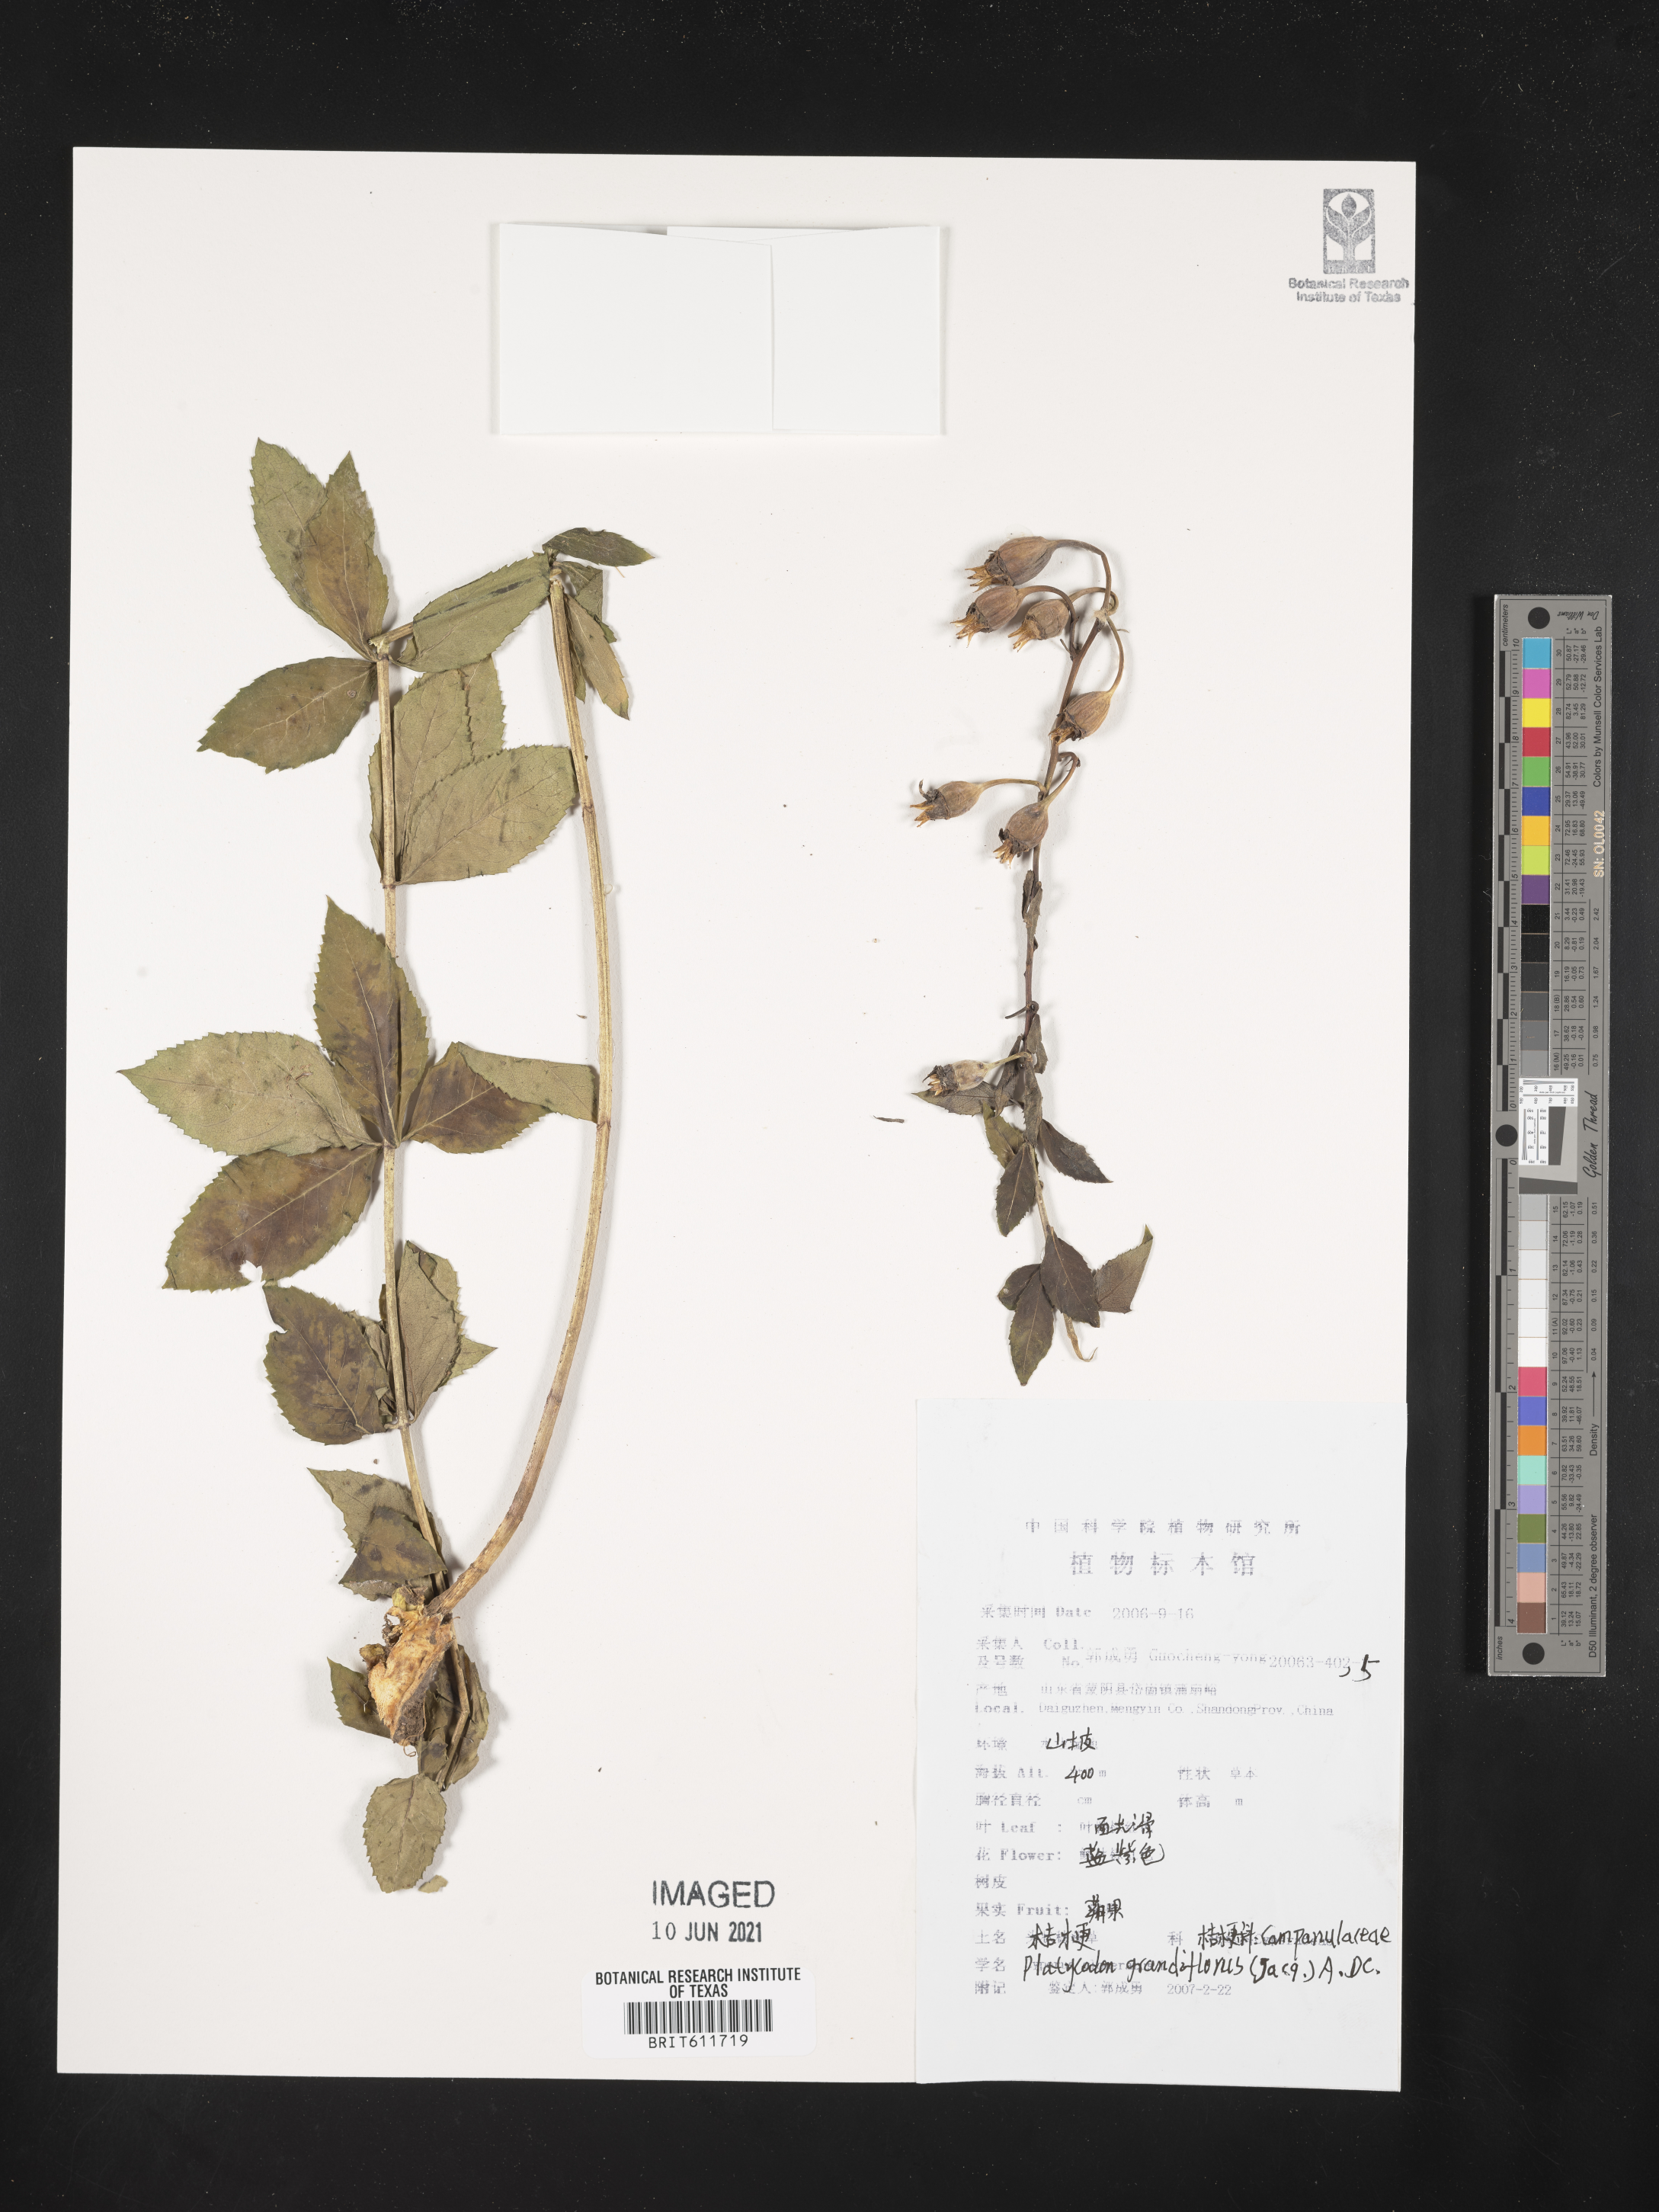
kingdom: Plantae
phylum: Tracheophyta
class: Magnoliopsida
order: Asterales
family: Campanulaceae
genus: Platycodon
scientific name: Platycodon grandiflorus
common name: Balloon-flower
